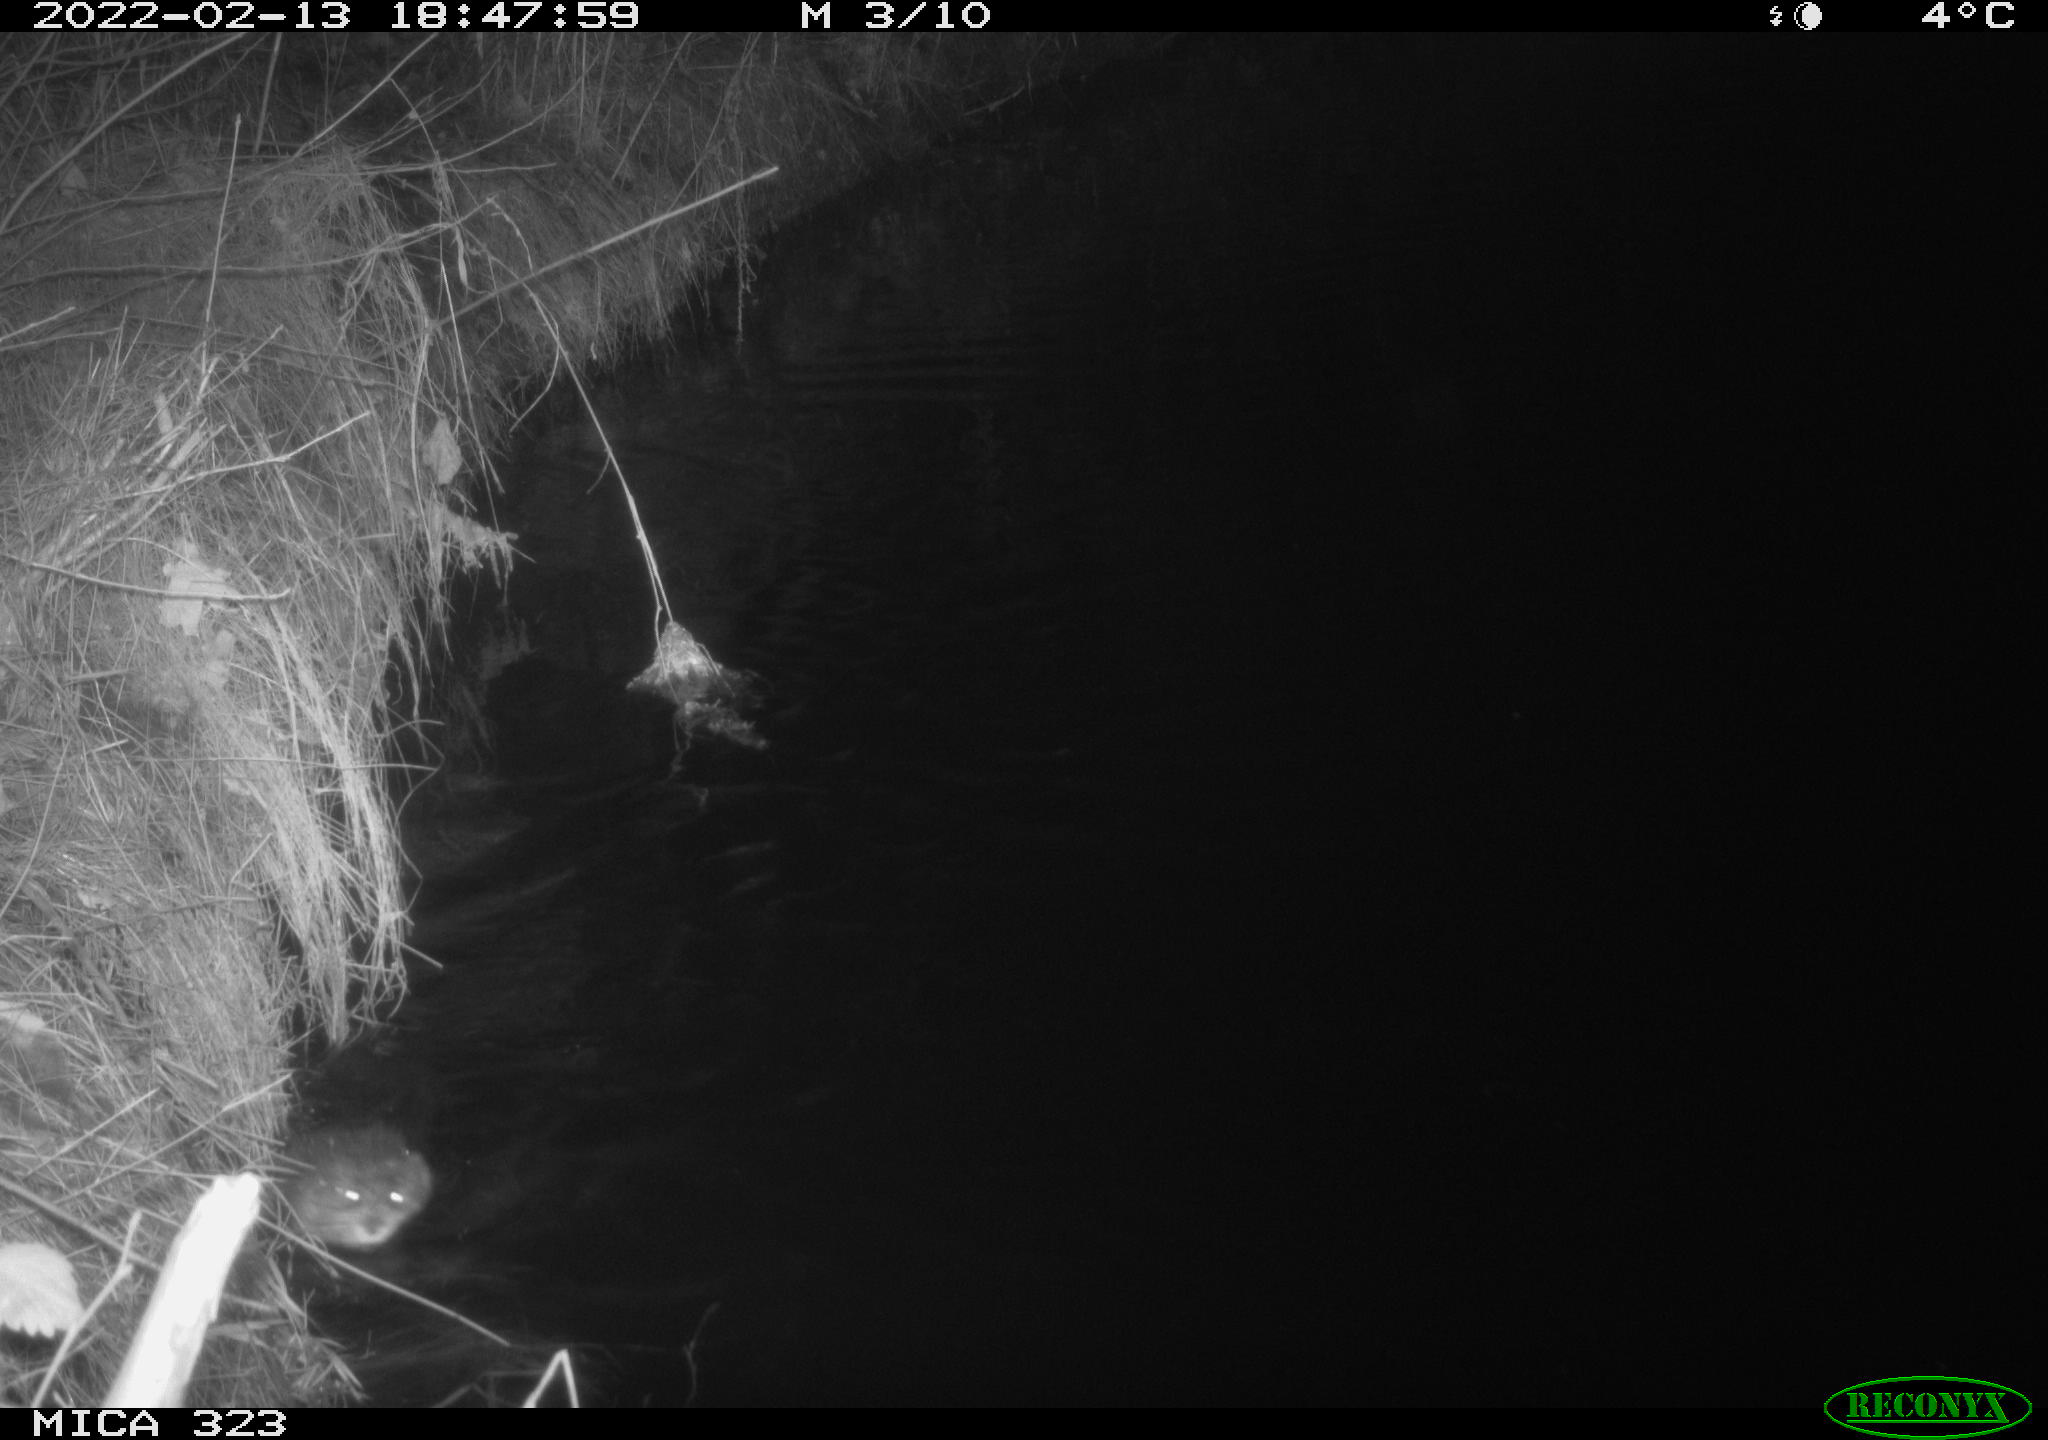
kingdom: Animalia
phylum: Chordata
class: Mammalia
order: Rodentia
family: Cricetidae
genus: Ondatra
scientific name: Ondatra zibethicus
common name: Muskrat
